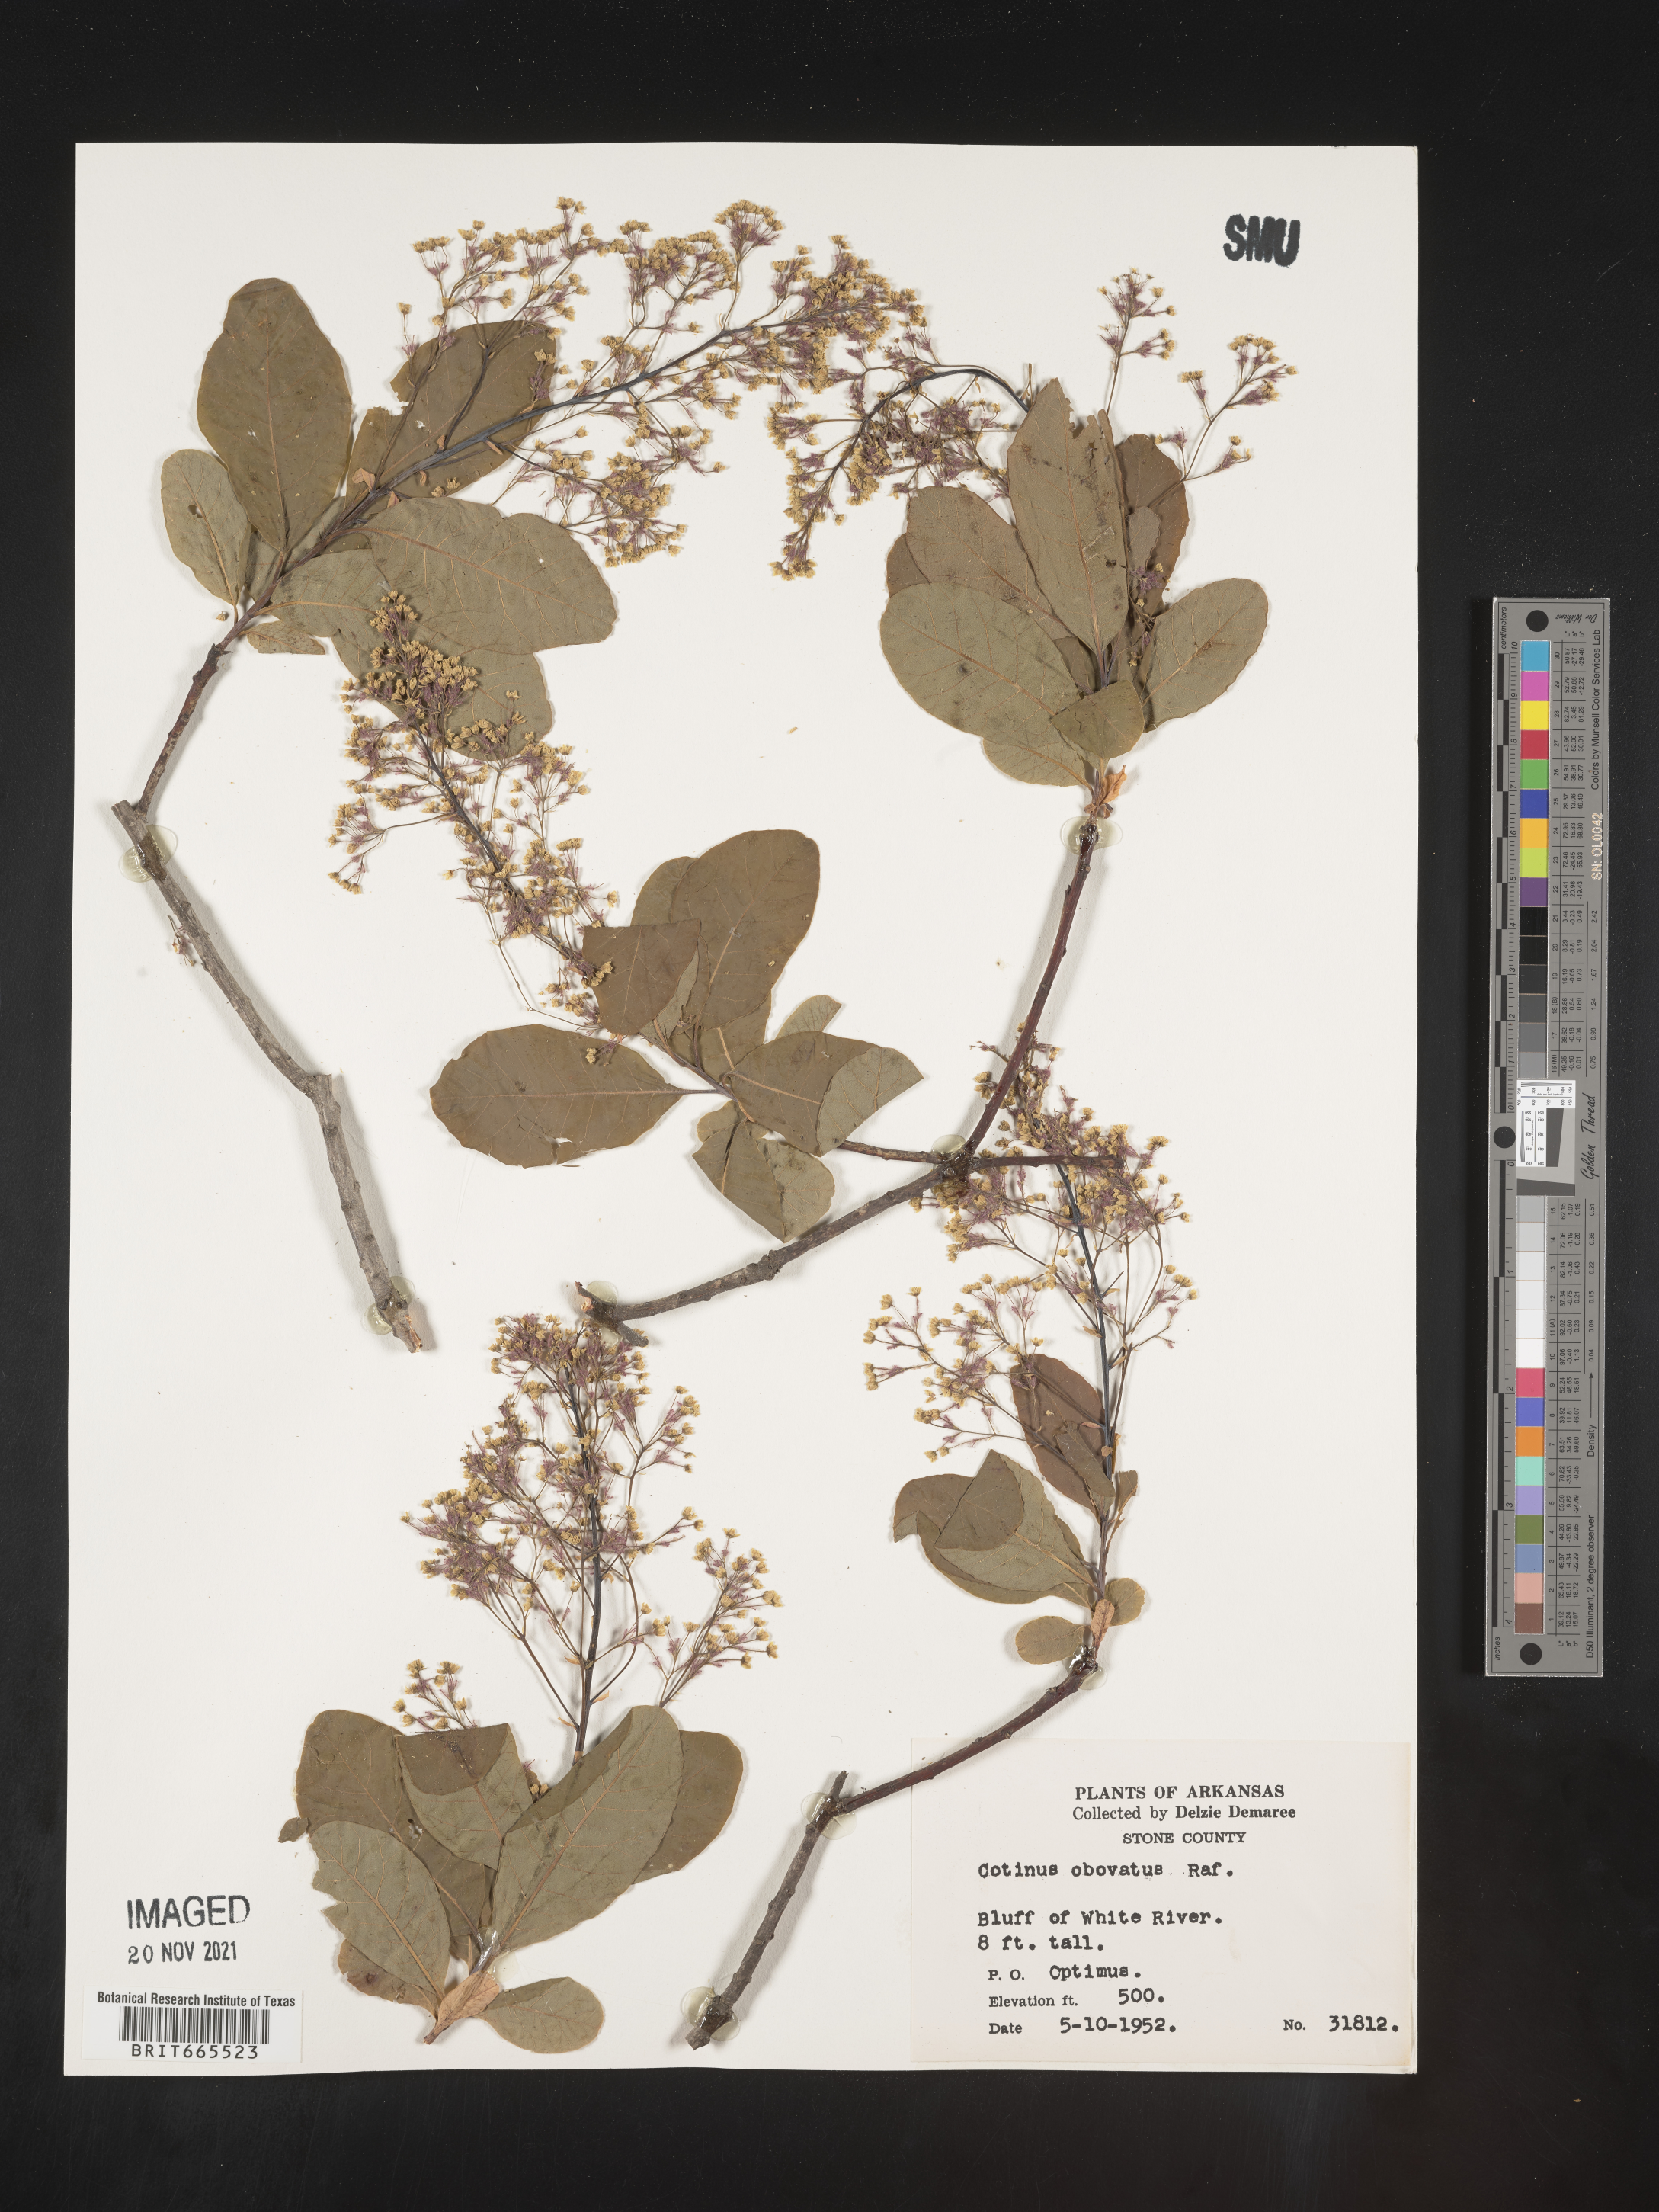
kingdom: Plantae
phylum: Tracheophyta
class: Magnoliopsida
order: Sapindales
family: Anacardiaceae
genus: Cotinus
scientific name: Cotinus obovatus
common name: Chittamwood
